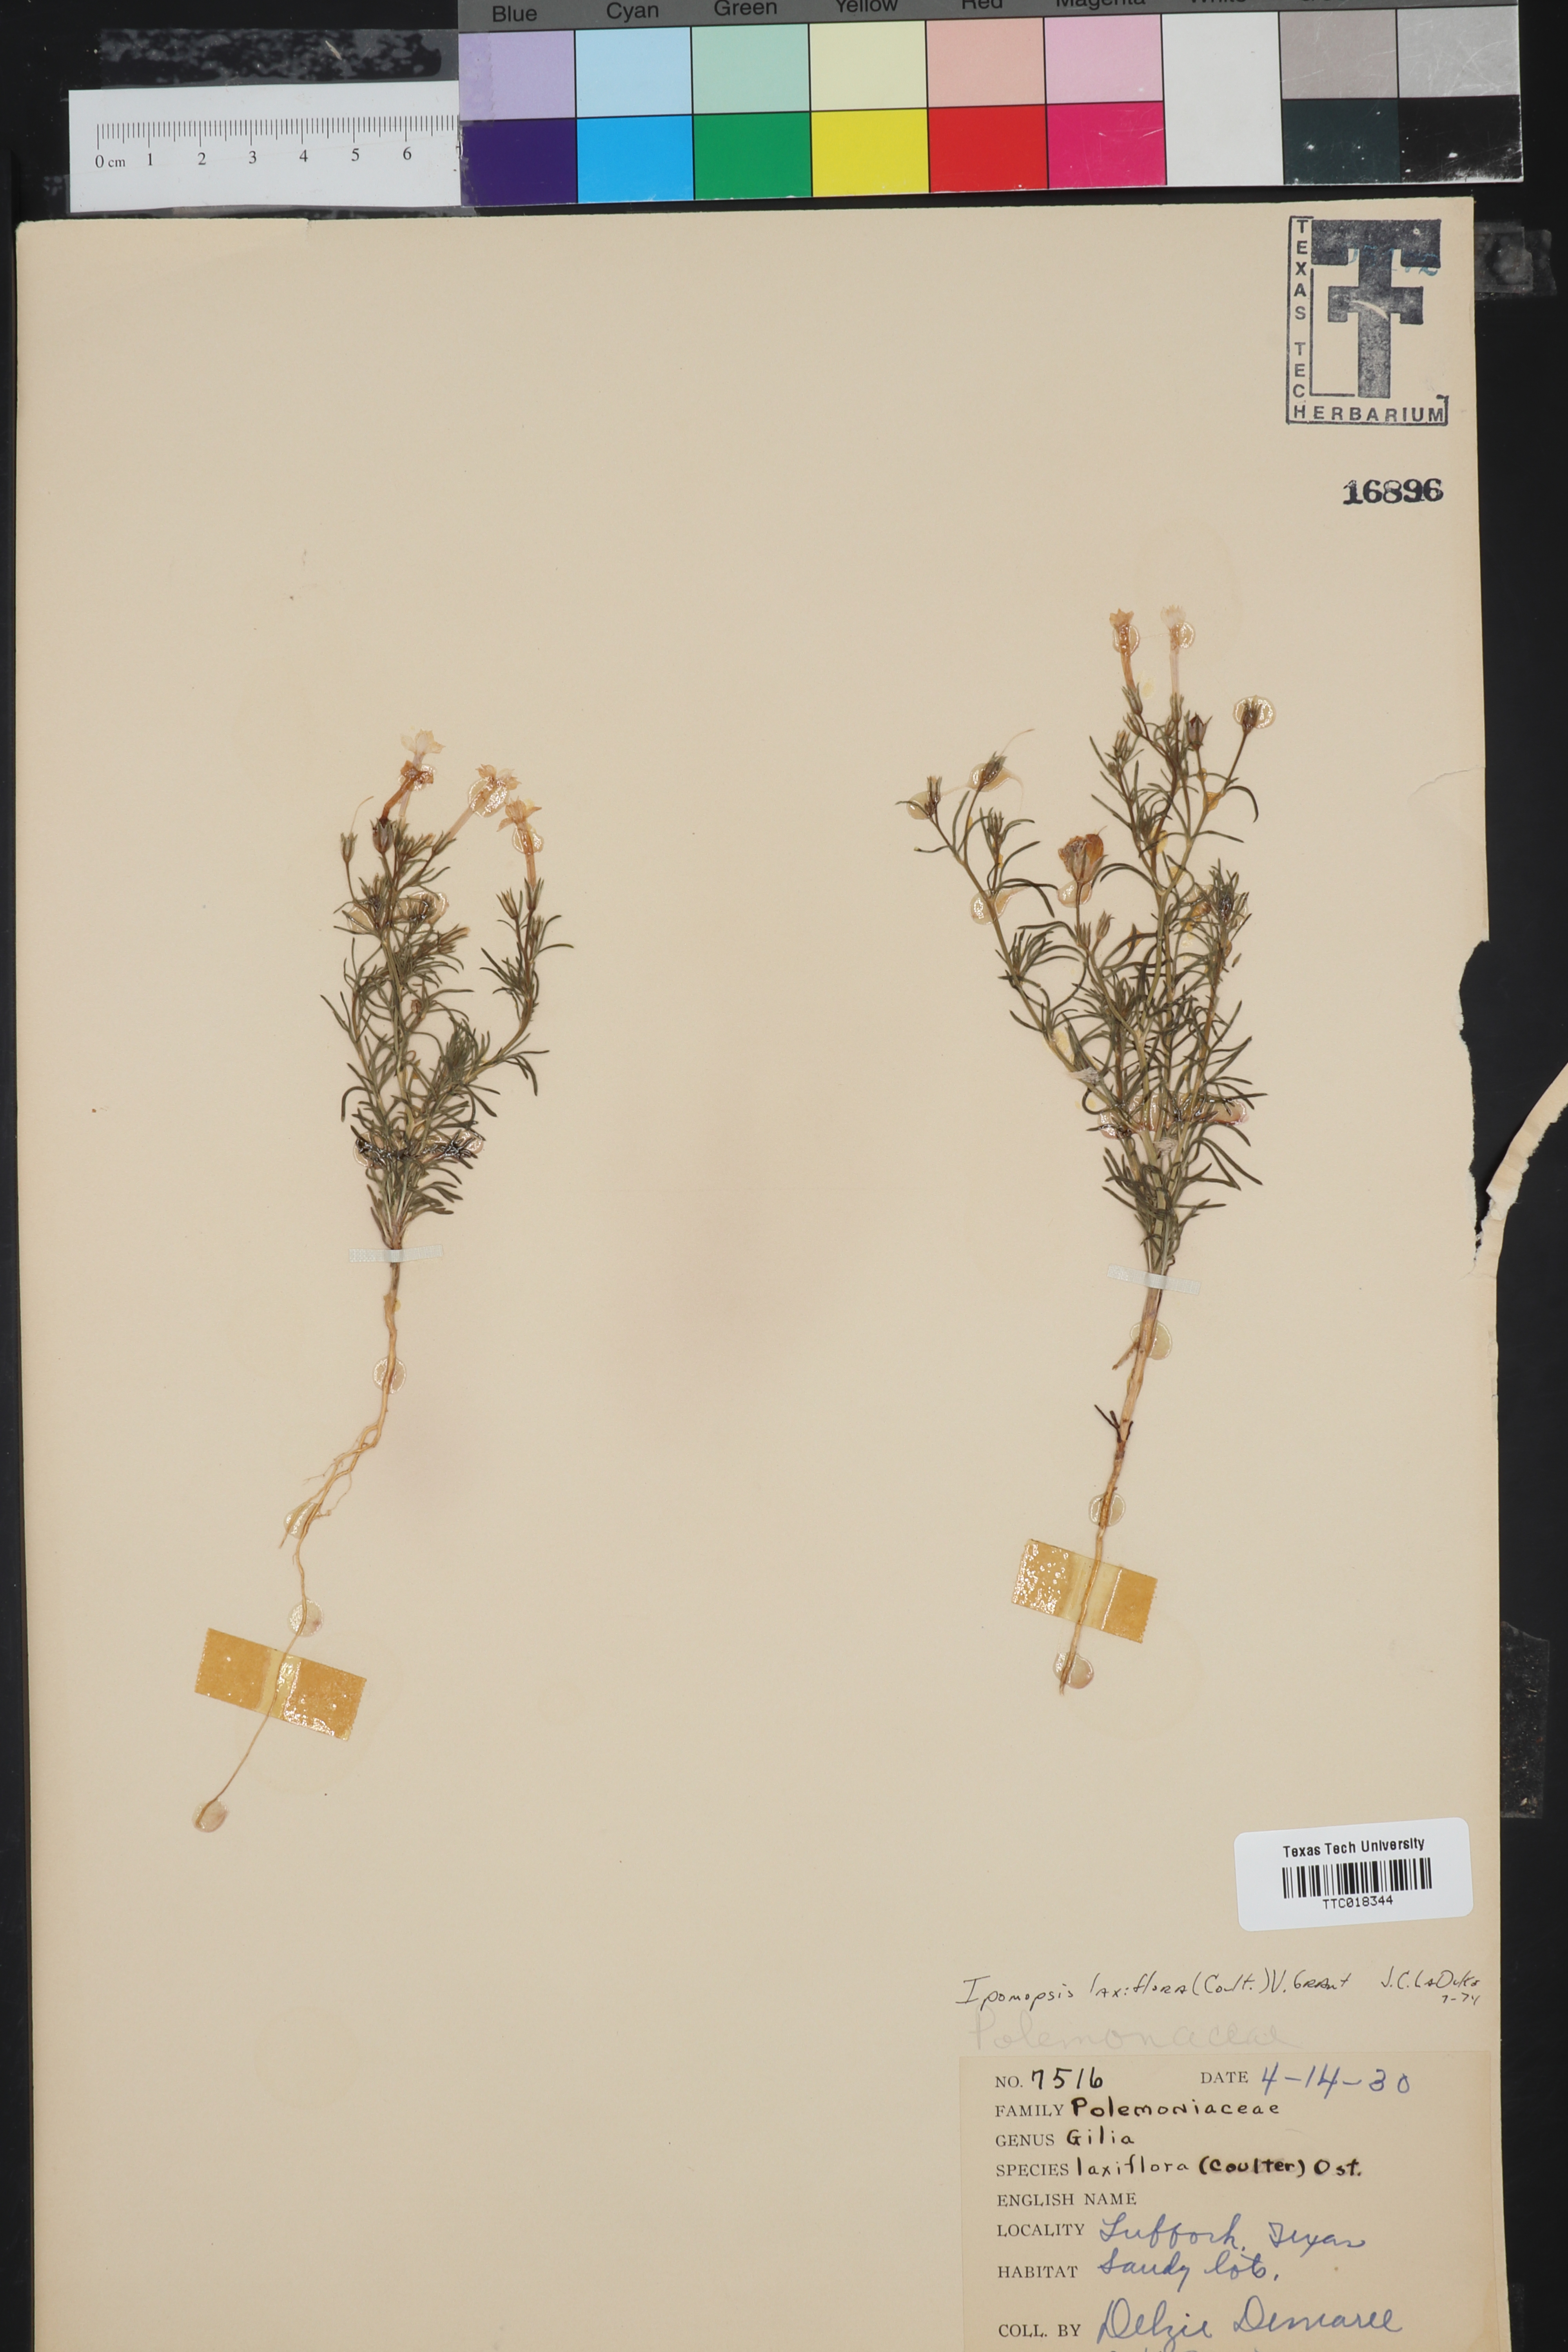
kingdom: Plantae
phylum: Tracheophyta
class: Magnoliopsida
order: Ericales
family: Polemoniaceae
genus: Ipomopsis
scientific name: Ipomopsis laxiflora
